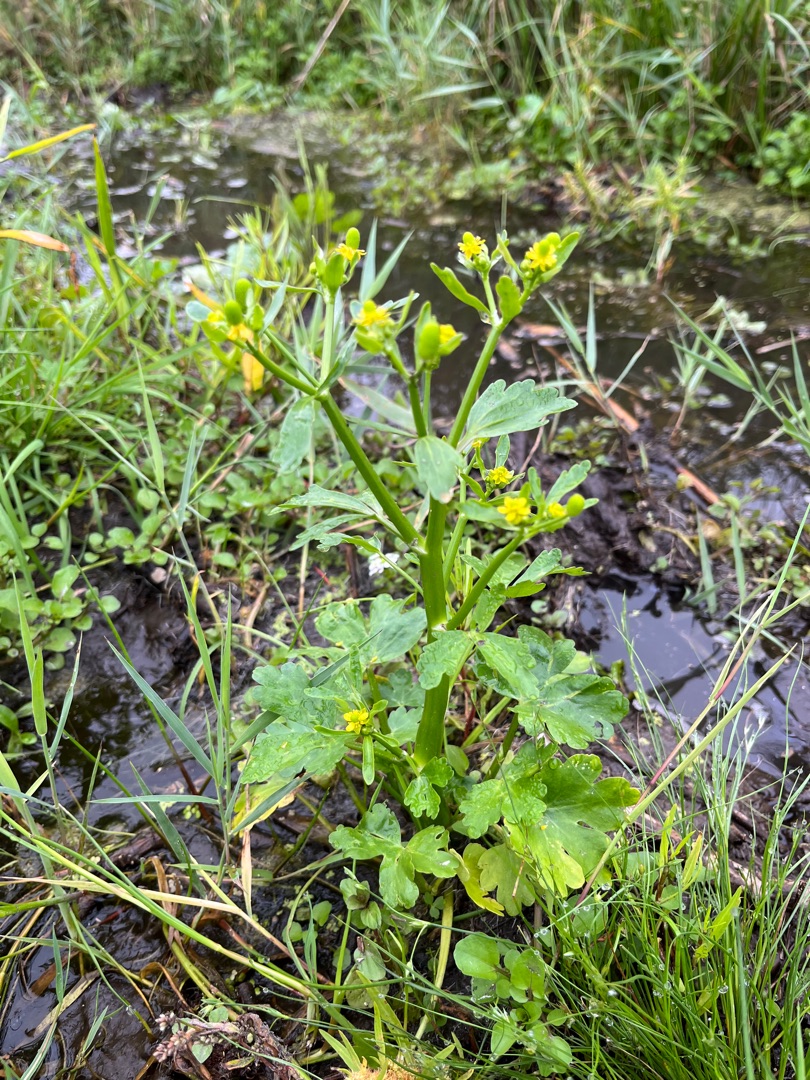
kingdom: Plantae
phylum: Tracheophyta
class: Magnoliopsida
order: Ranunculales
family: Ranunculaceae
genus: Ranunculus
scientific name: Ranunculus sceleratus
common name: Tigger-ranunkel
